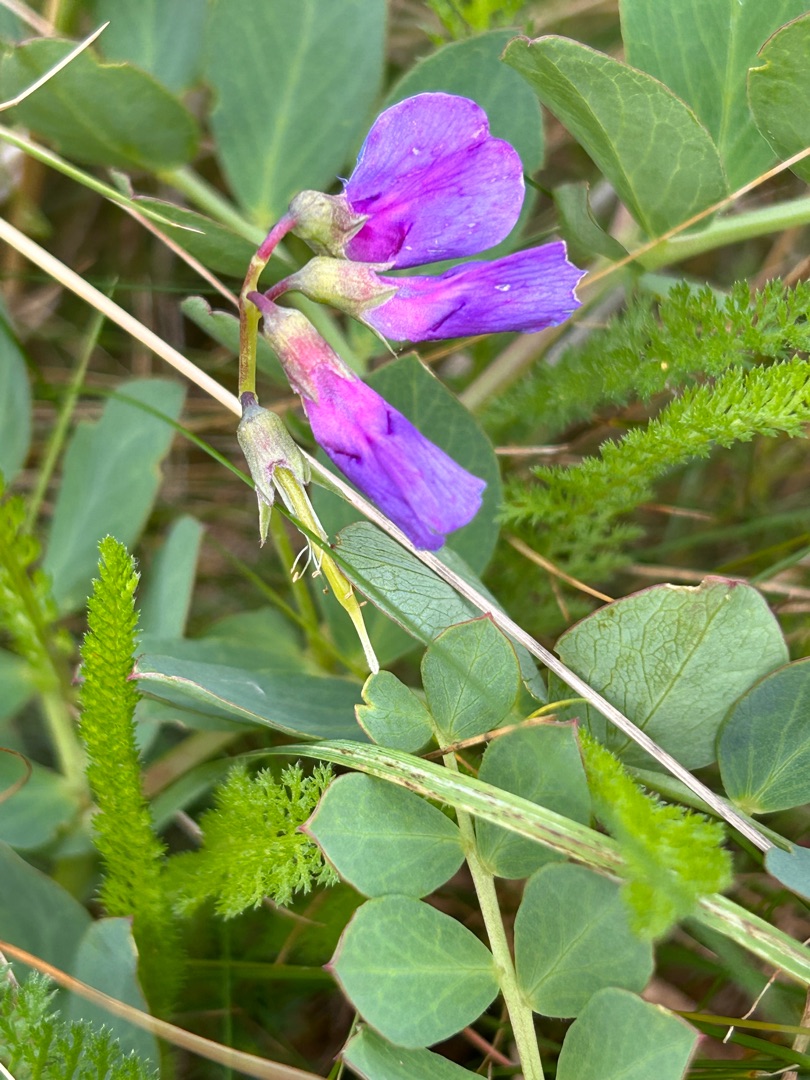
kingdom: Plantae
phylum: Tracheophyta
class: Magnoliopsida
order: Fabales
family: Fabaceae
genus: Lathyrus
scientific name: Lathyrus japonicus
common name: Strand-fladbælg
